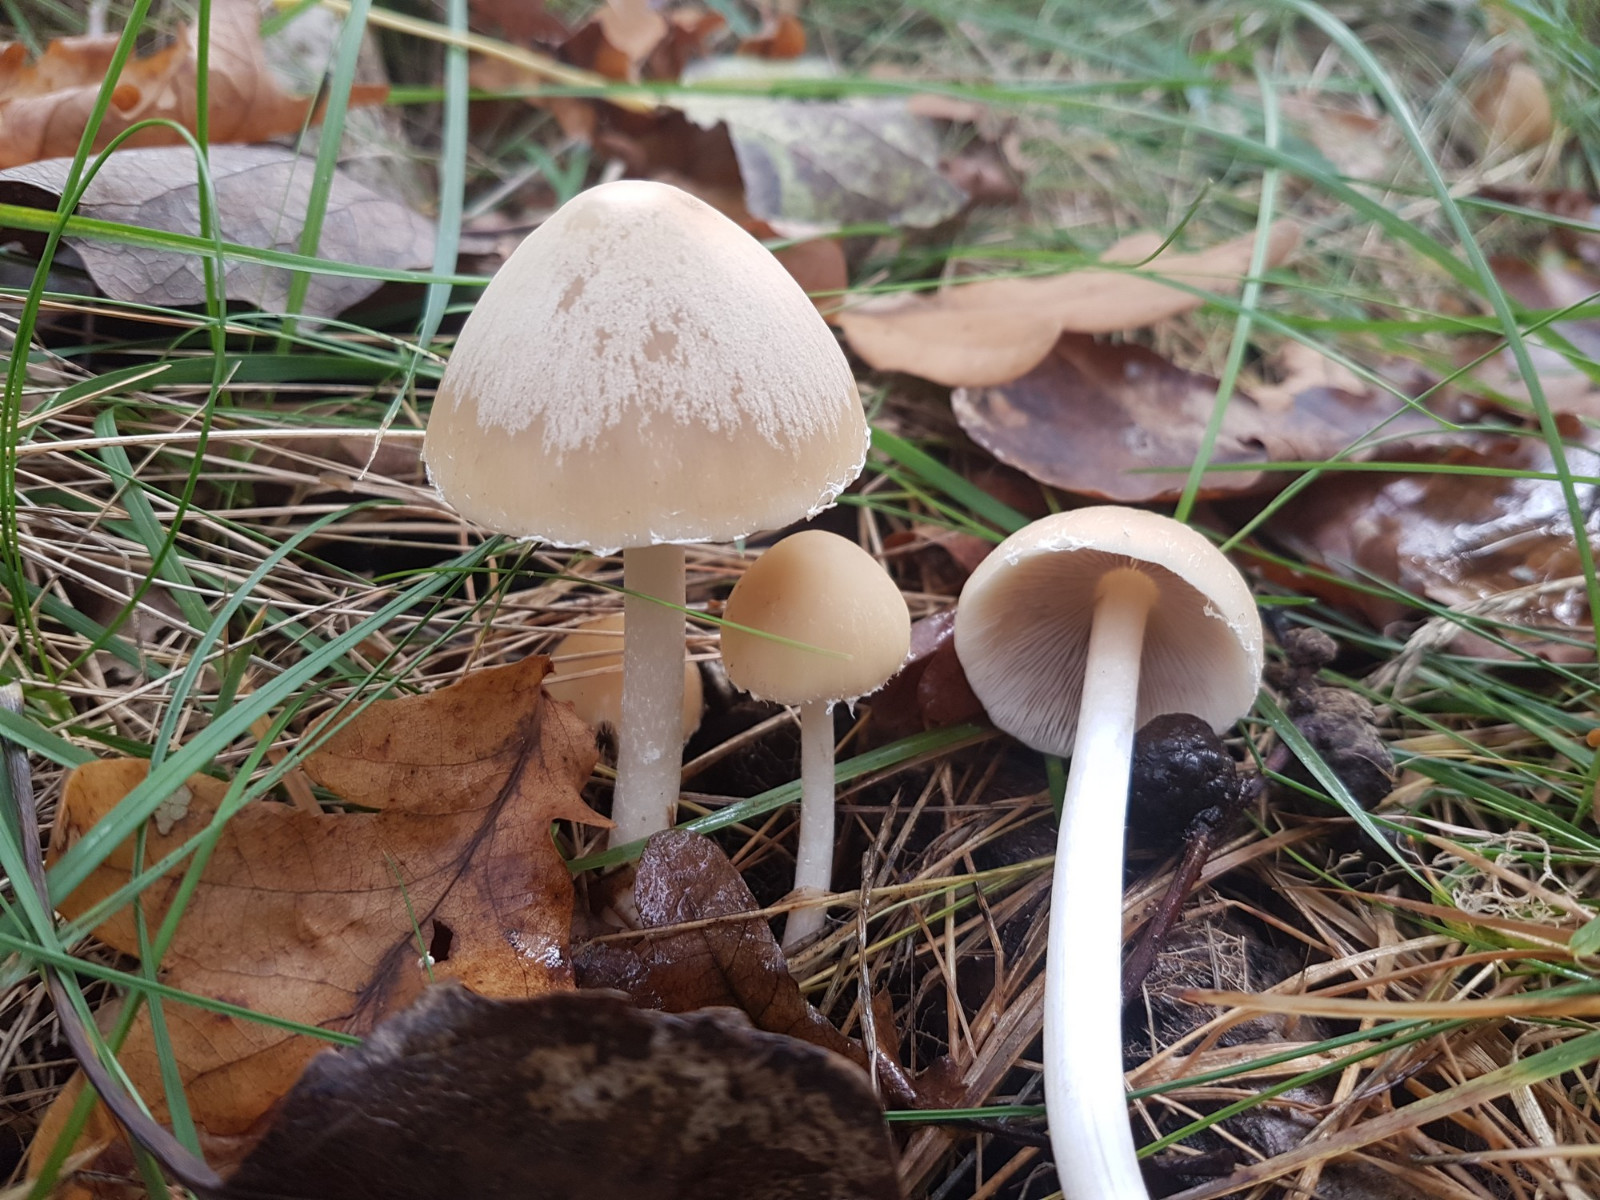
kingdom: Fungi
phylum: Basidiomycota
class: Agaricomycetes
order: Agaricales
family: Psathyrellaceae
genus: Candolleomyces
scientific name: Candolleomyces candolleanus
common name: Candolles mørkhat
